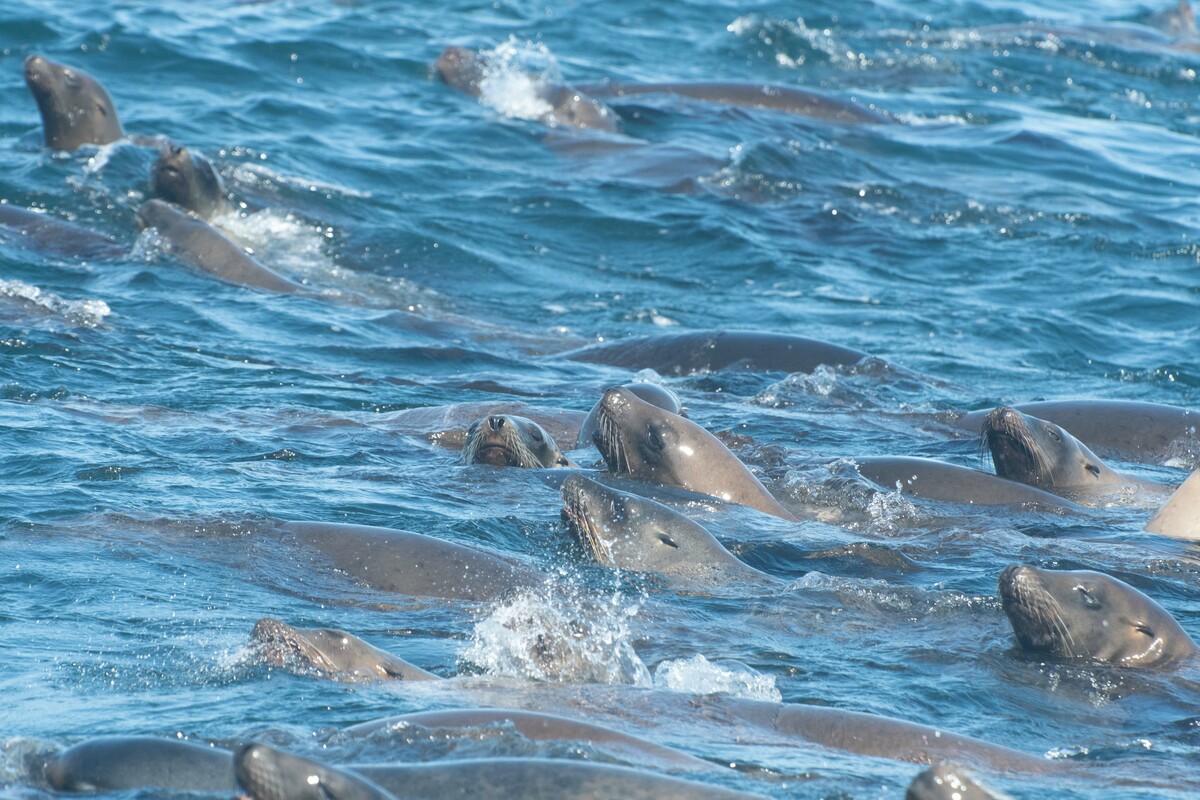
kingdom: Animalia
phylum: Chordata
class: Mammalia
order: Carnivora
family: Otariidae
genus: Zalophus
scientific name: Zalophus californianus
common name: California sea lion
